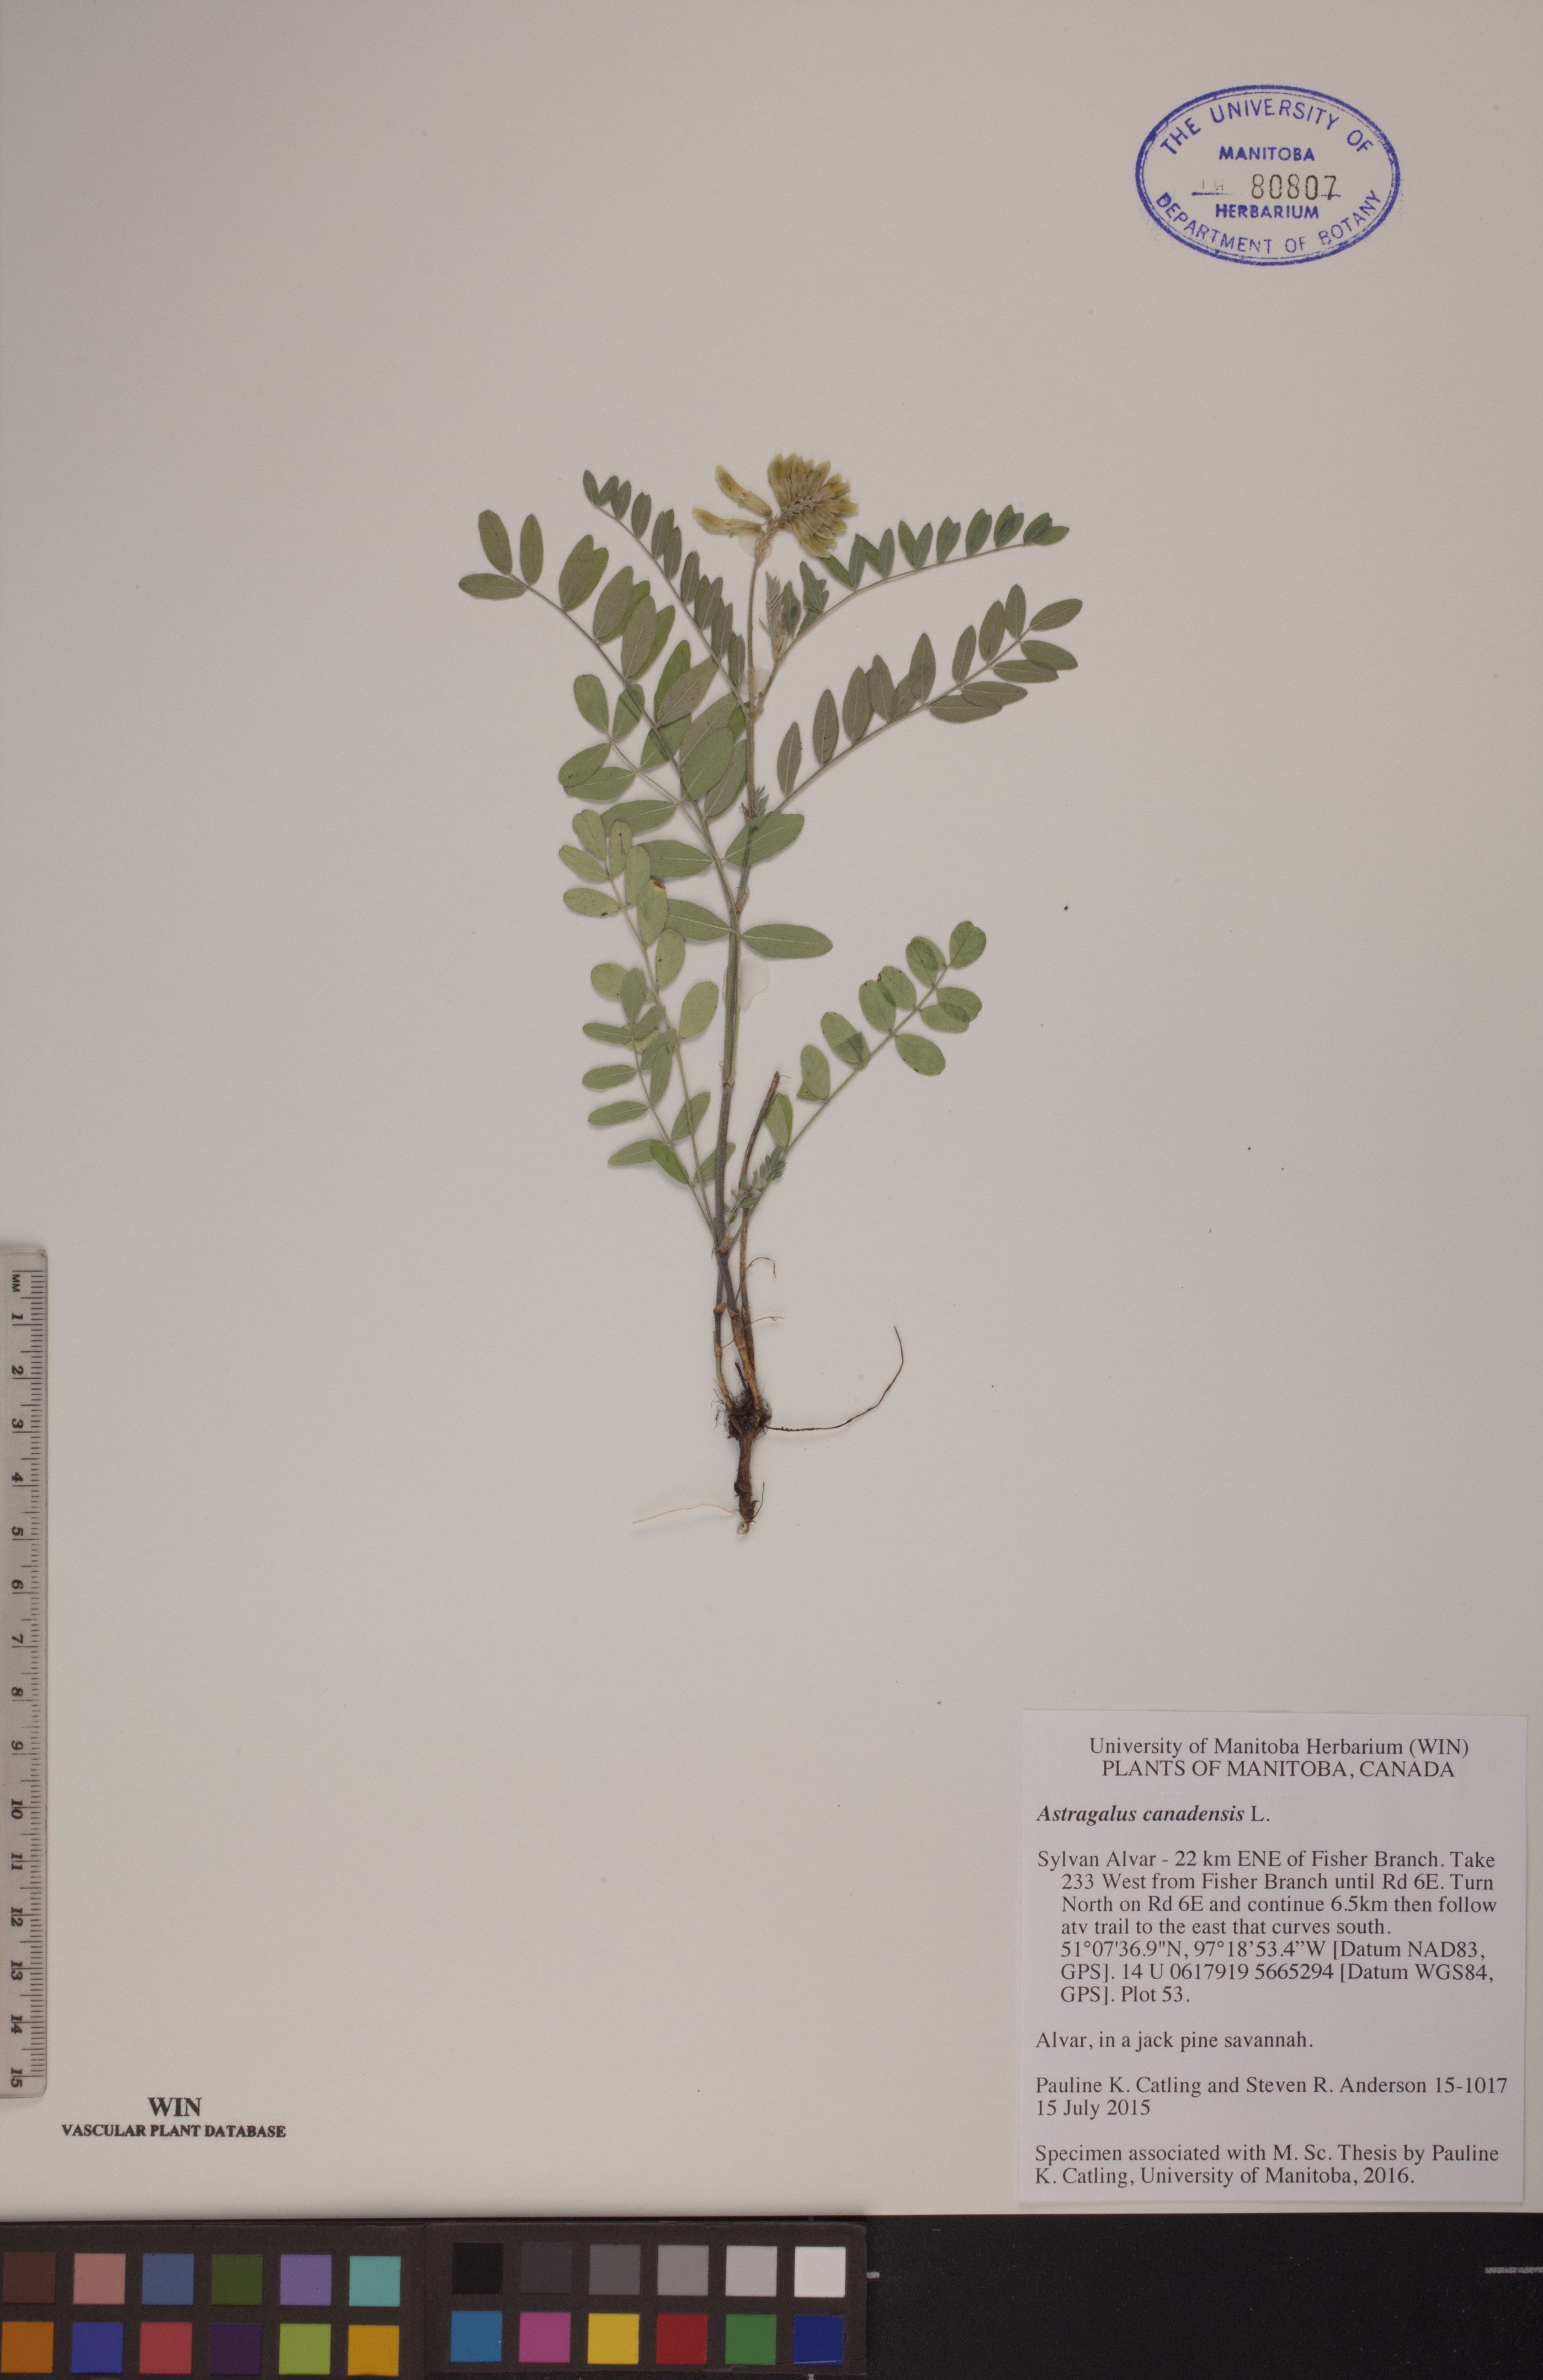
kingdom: Plantae
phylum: Tracheophyta
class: Magnoliopsida
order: Fabales
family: Fabaceae
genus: Astragalus
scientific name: Astragalus canadensis
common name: Canada milk-vetch
